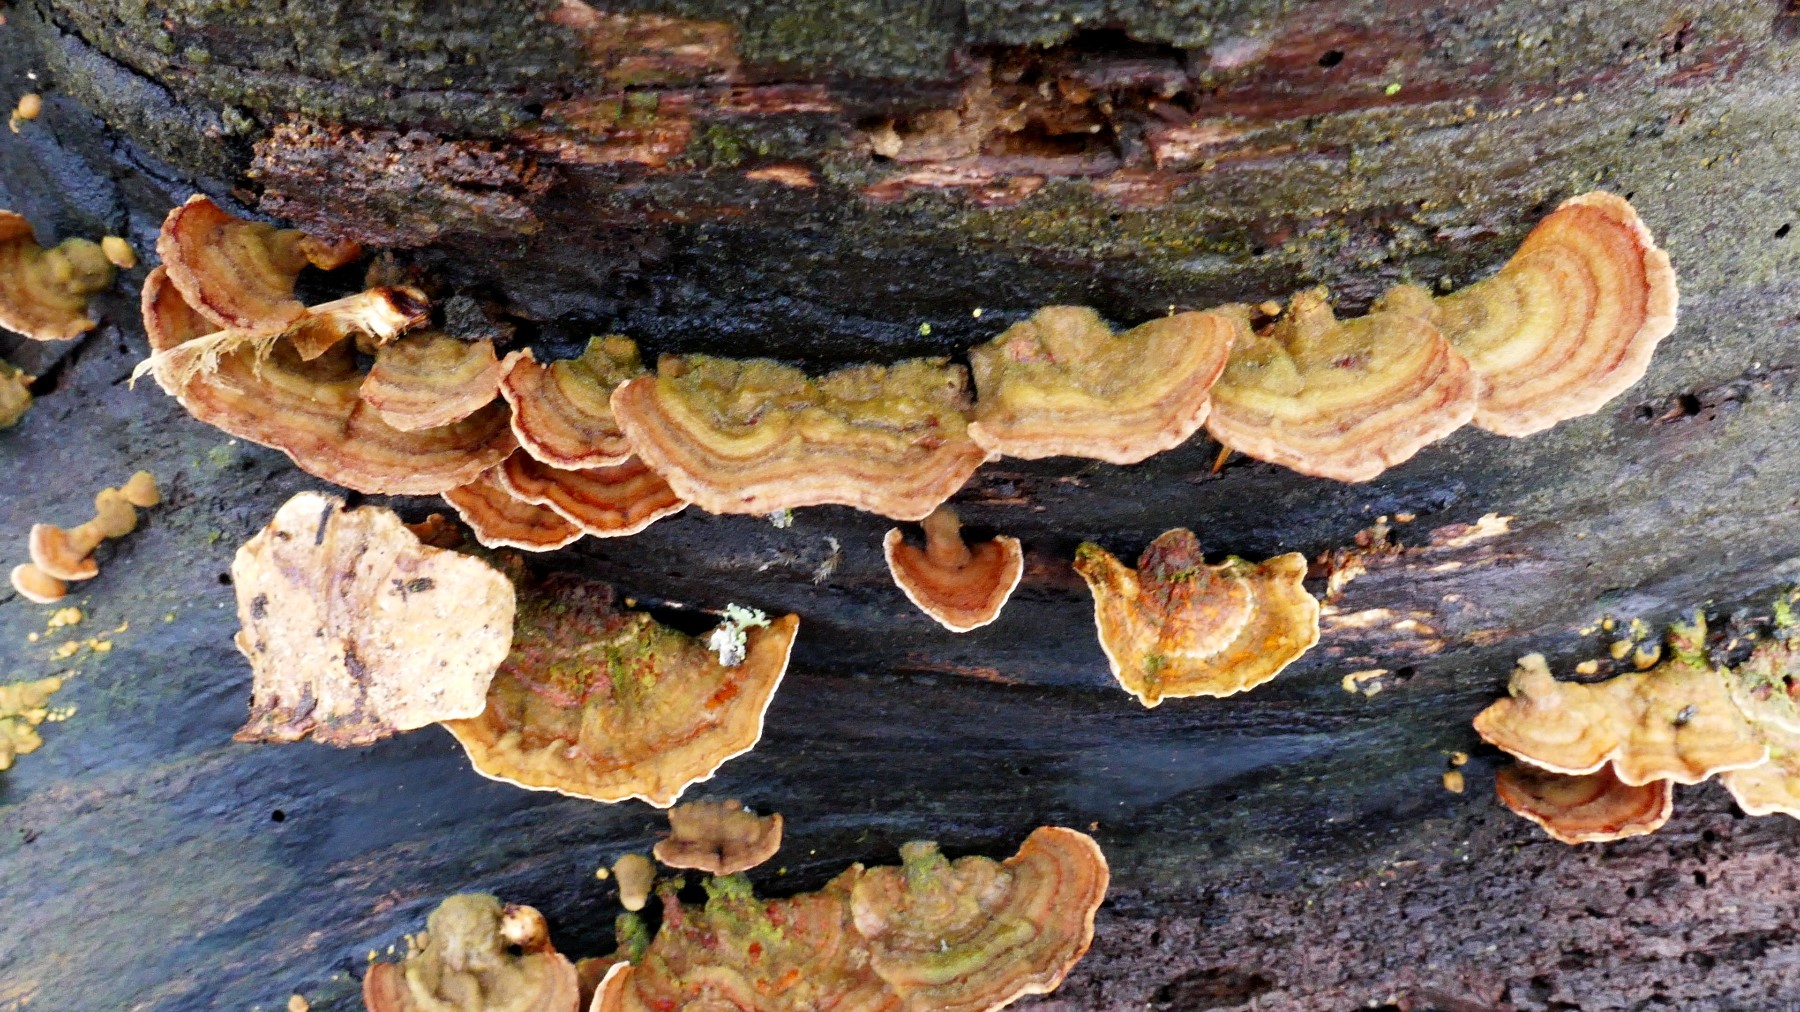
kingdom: Fungi
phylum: Basidiomycota
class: Agaricomycetes
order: Russulales
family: Stereaceae
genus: Stereum
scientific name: Stereum subtomentosum
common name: smuk lædersvamp
